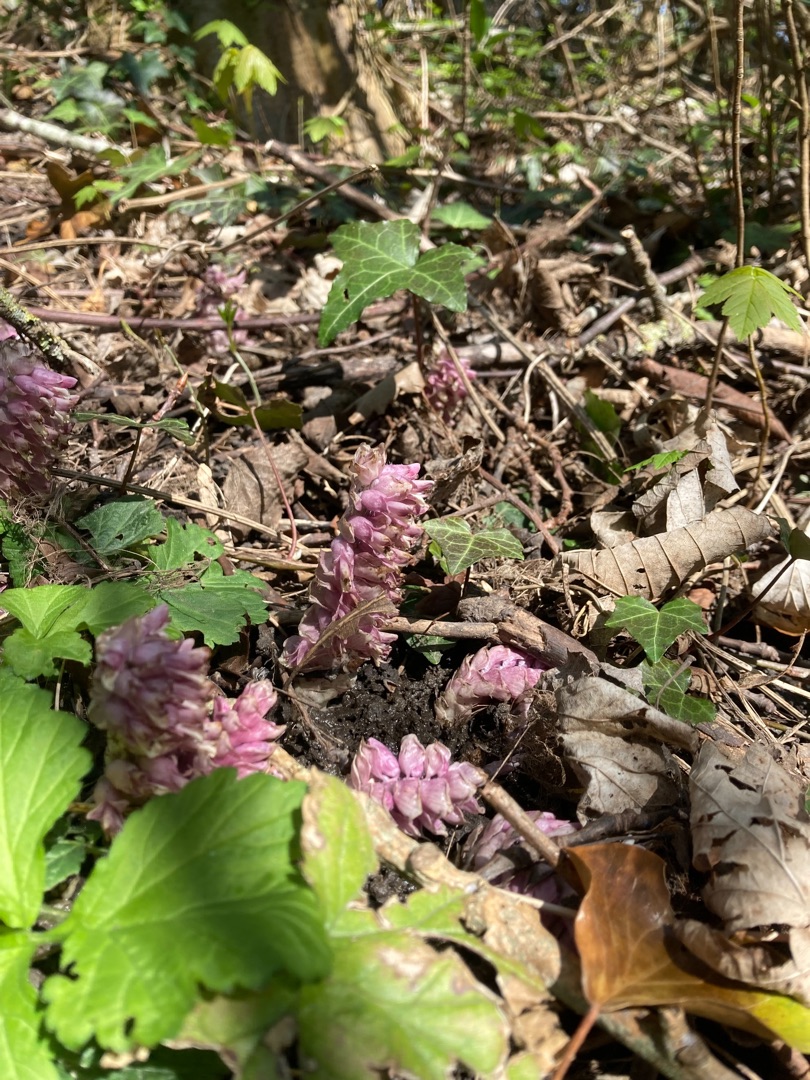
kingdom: Plantae
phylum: Tracheophyta
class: Magnoliopsida
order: Lamiales
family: Orobanchaceae
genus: Lathraea
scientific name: Lathraea squamaria
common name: Skælrod
